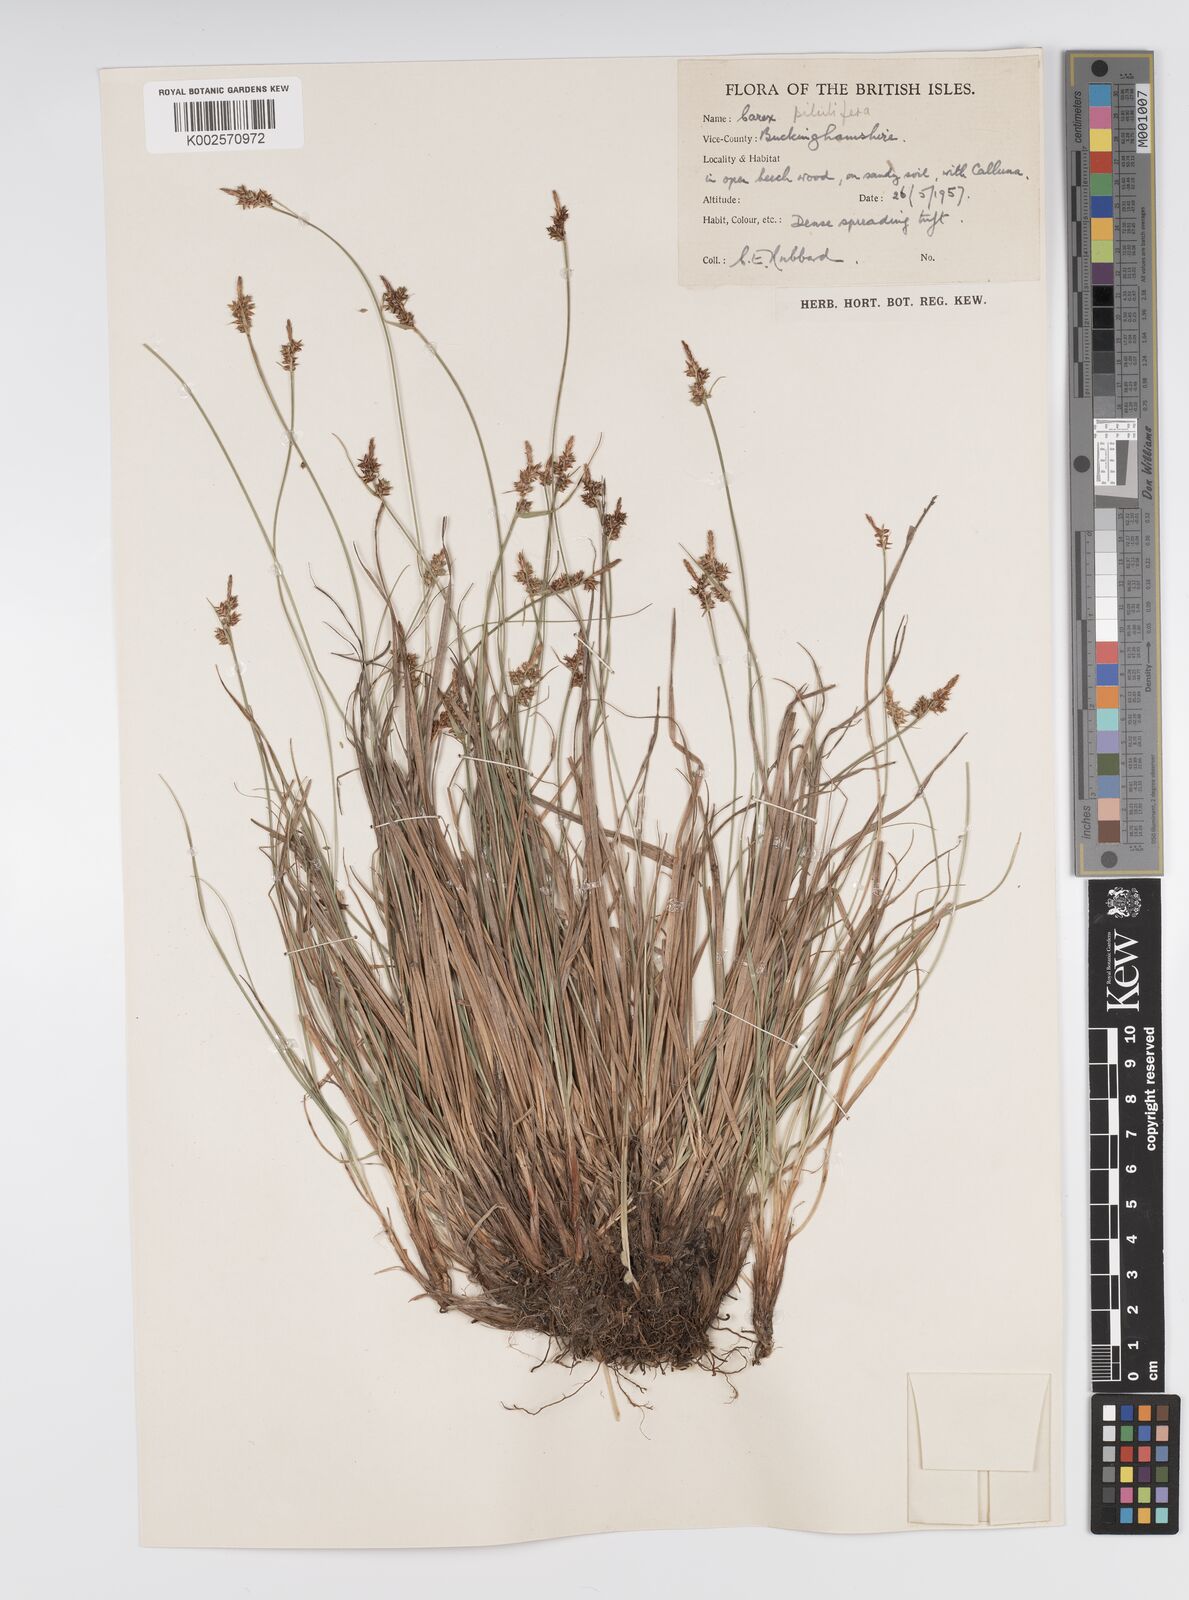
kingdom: Plantae
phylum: Tracheophyta
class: Liliopsida
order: Poales
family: Cyperaceae
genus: Carex
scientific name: Carex pilulifera
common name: Pill sedge
